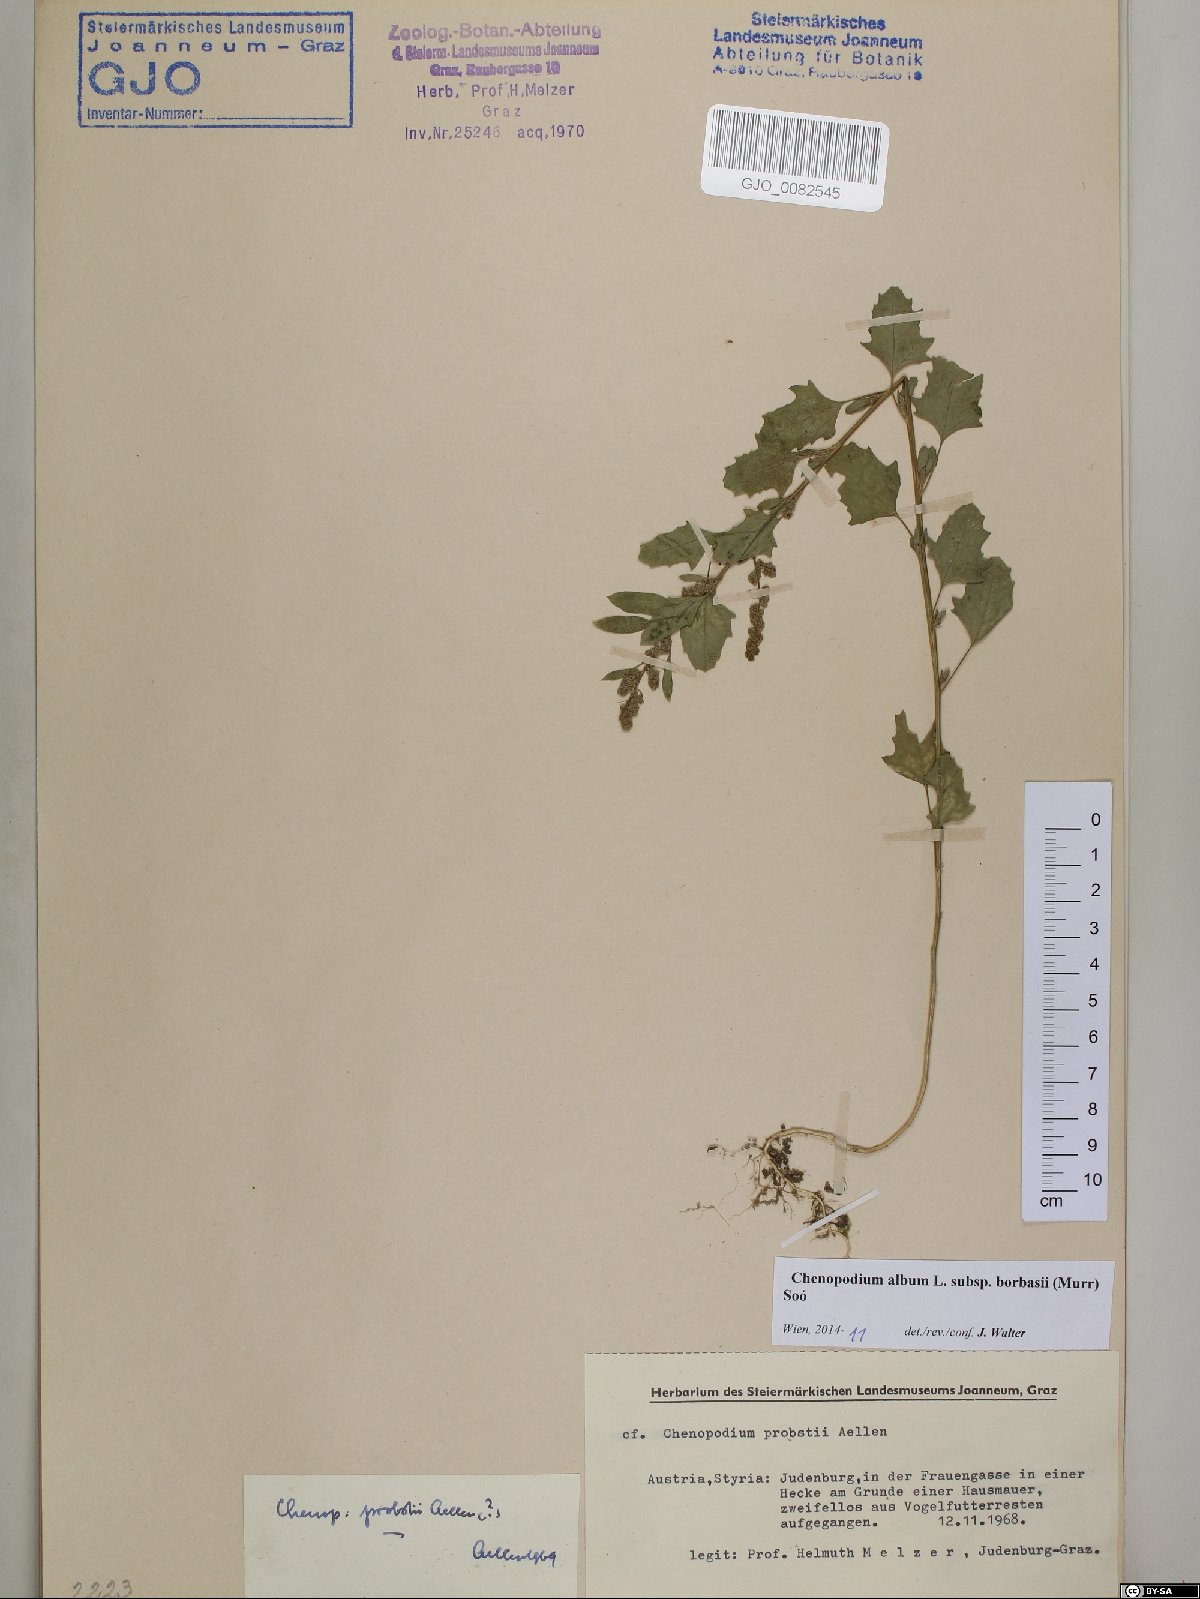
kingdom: Plantae
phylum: Tracheophyta
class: Magnoliopsida
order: Caryophyllales
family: Amaranthaceae
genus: Chenopodium
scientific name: Chenopodium borbasii
